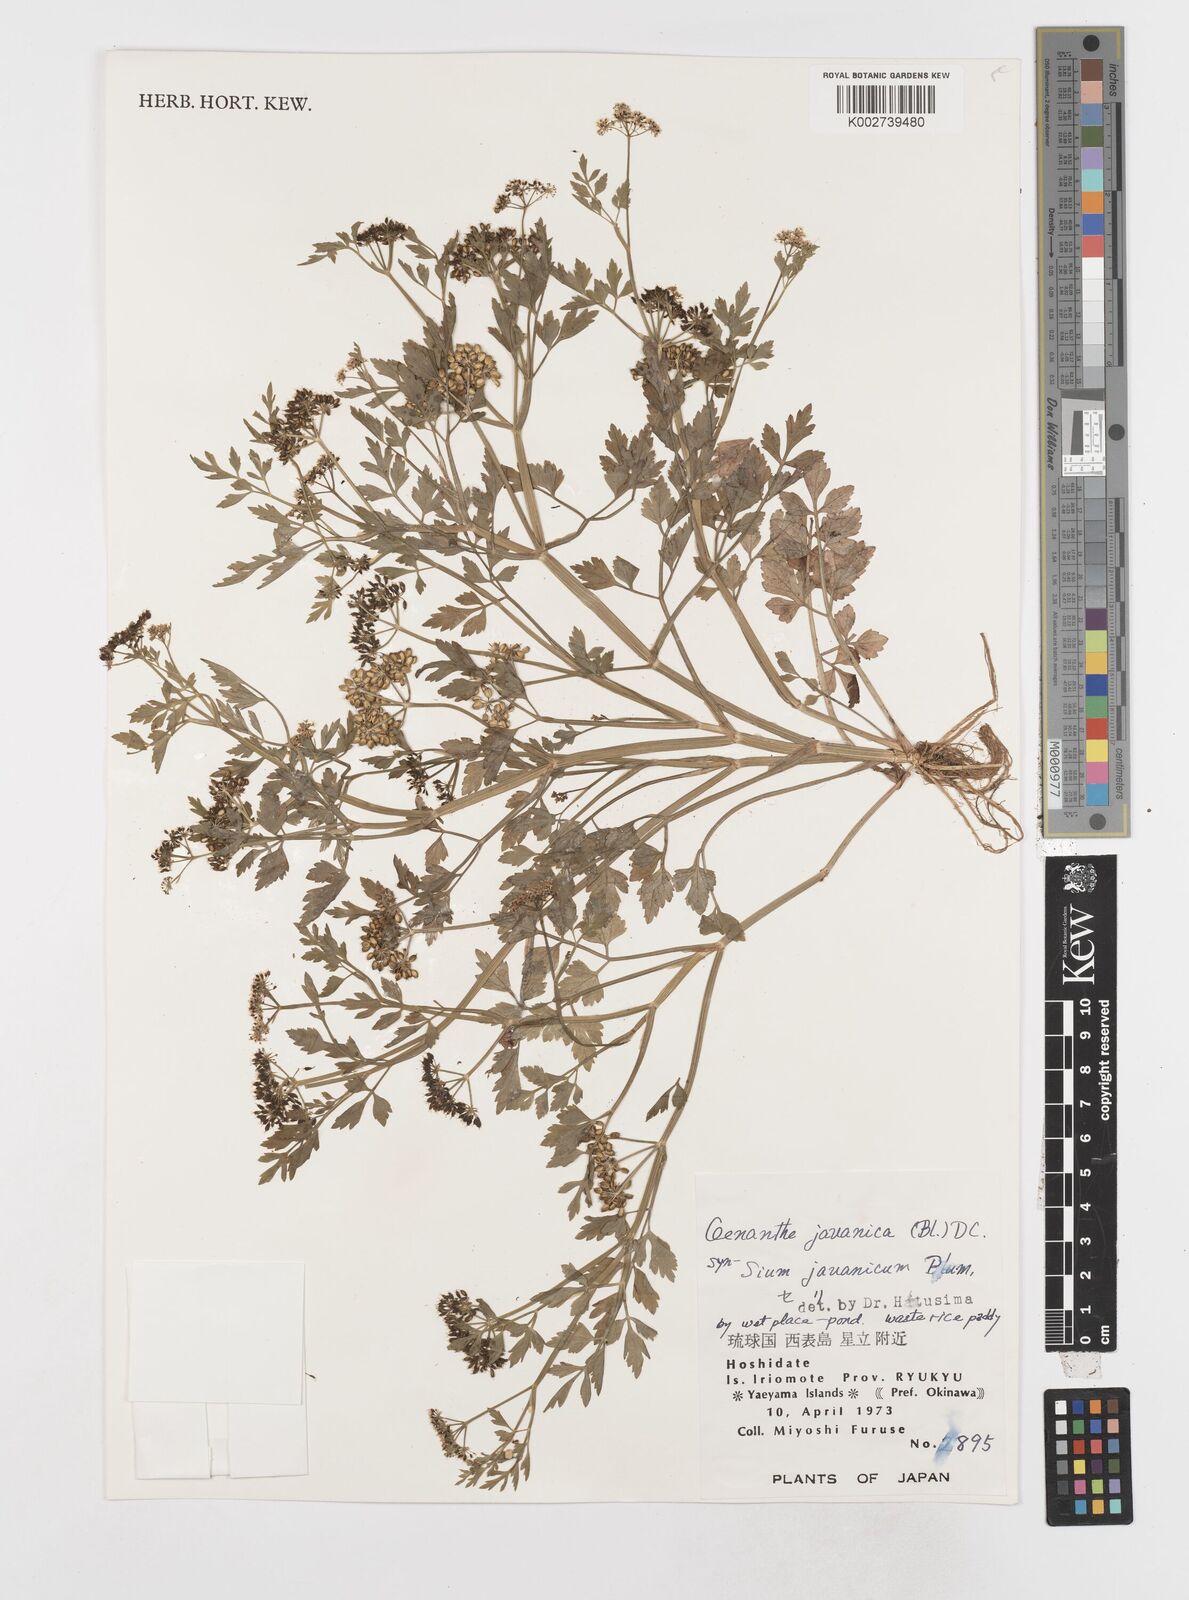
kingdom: Plantae
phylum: Tracheophyta
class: Magnoliopsida
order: Apiales
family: Apiaceae
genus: Oenanthe
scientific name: Oenanthe javanica
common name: Java water-dropwort
